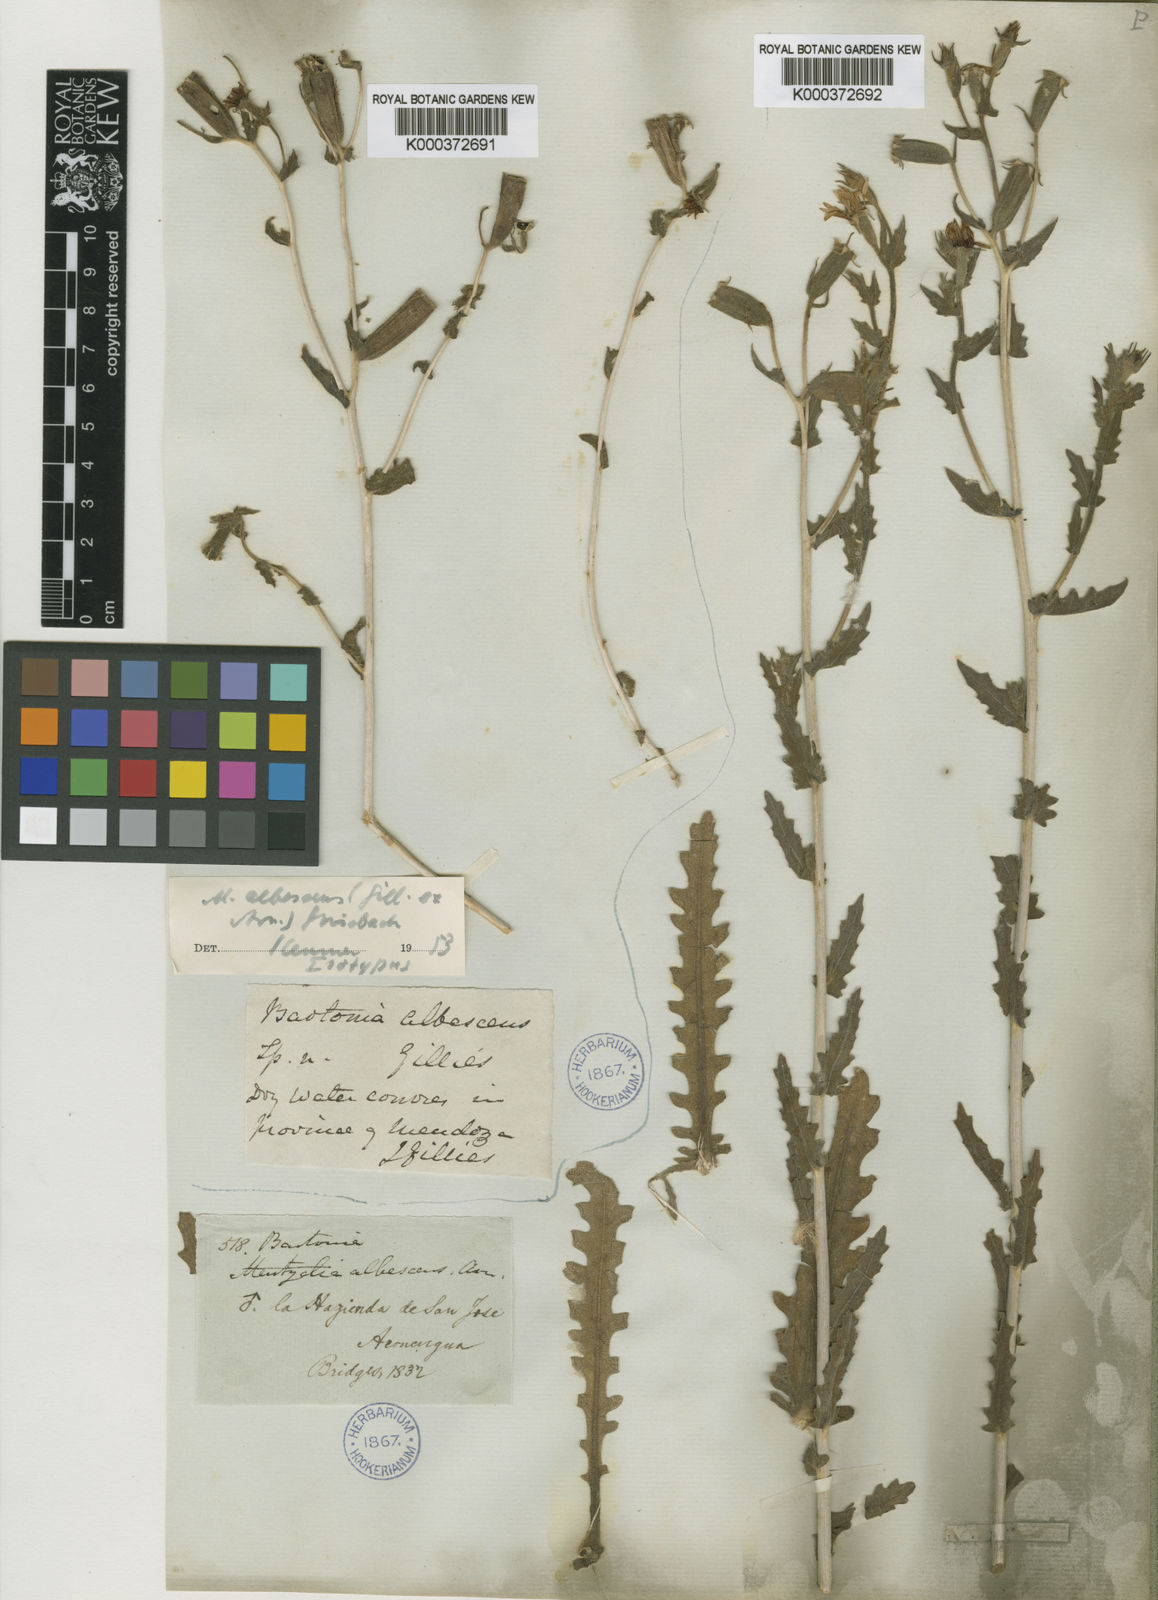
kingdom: Plantae
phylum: Tracheophyta
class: Magnoliopsida
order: Cornales
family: Loasaceae
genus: Mentzelia
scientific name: Mentzelia albescens
